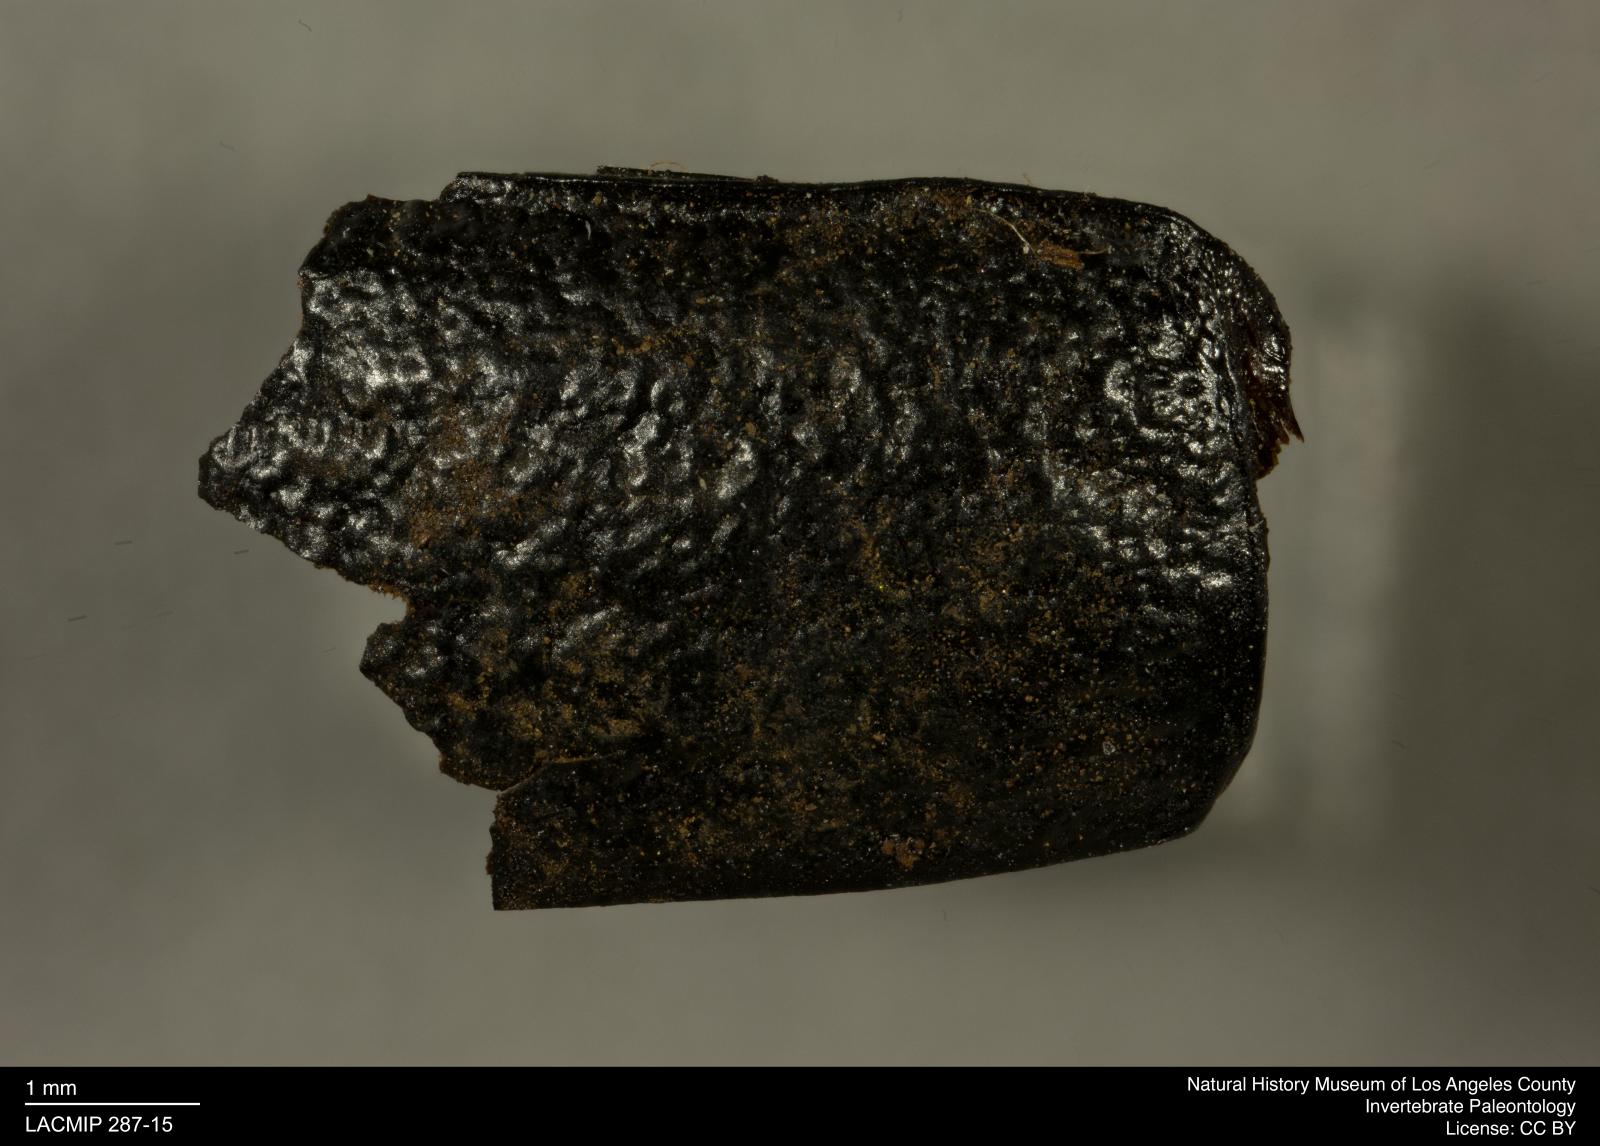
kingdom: Animalia
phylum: Arthropoda
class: Insecta
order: Coleoptera
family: Tenebrionidae
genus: Coniontis
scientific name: Coniontis abdominalis
